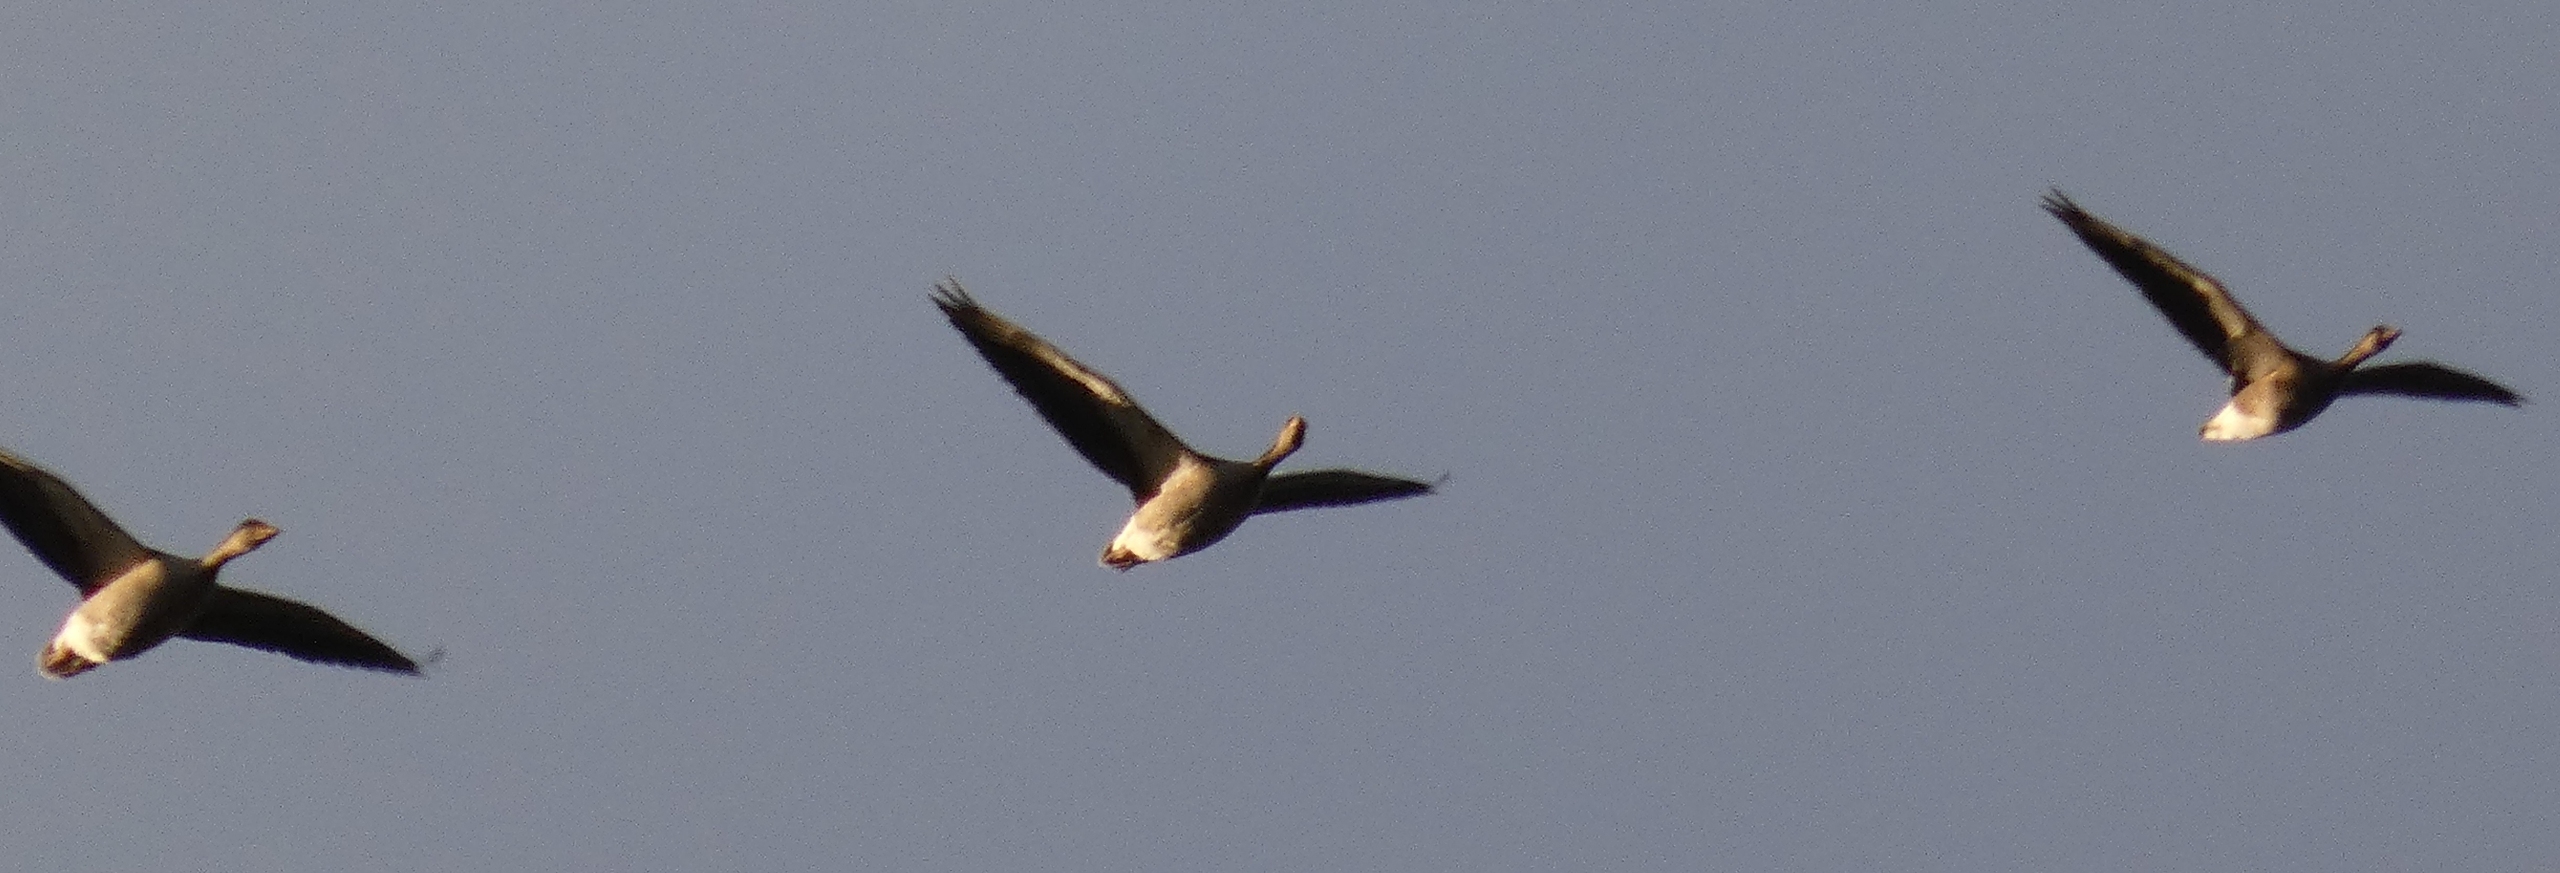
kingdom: Animalia
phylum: Chordata
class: Aves
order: Anseriformes
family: Anatidae
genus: Anser
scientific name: Anser anser
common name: Grågås
